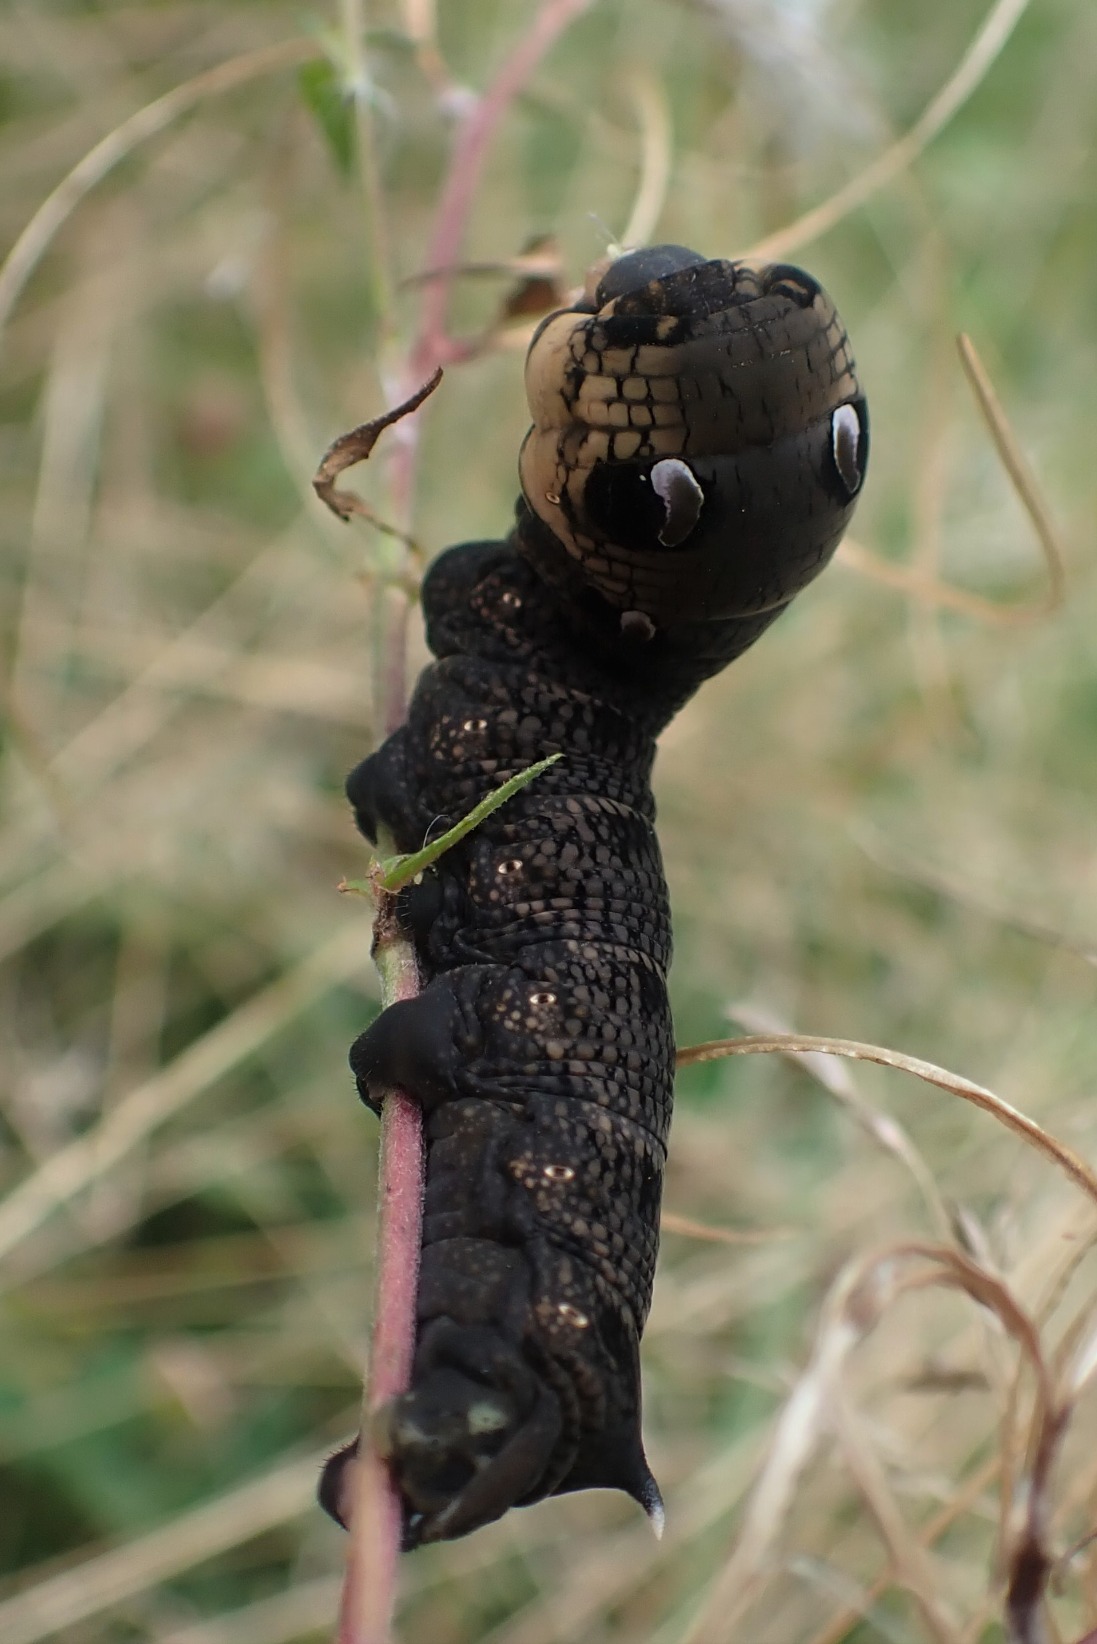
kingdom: Animalia
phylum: Arthropoda
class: Insecta
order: Lepidoptera
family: Sphingidae
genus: Deilephila
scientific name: Deilephila elpenor
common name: Dueurtsværmer
